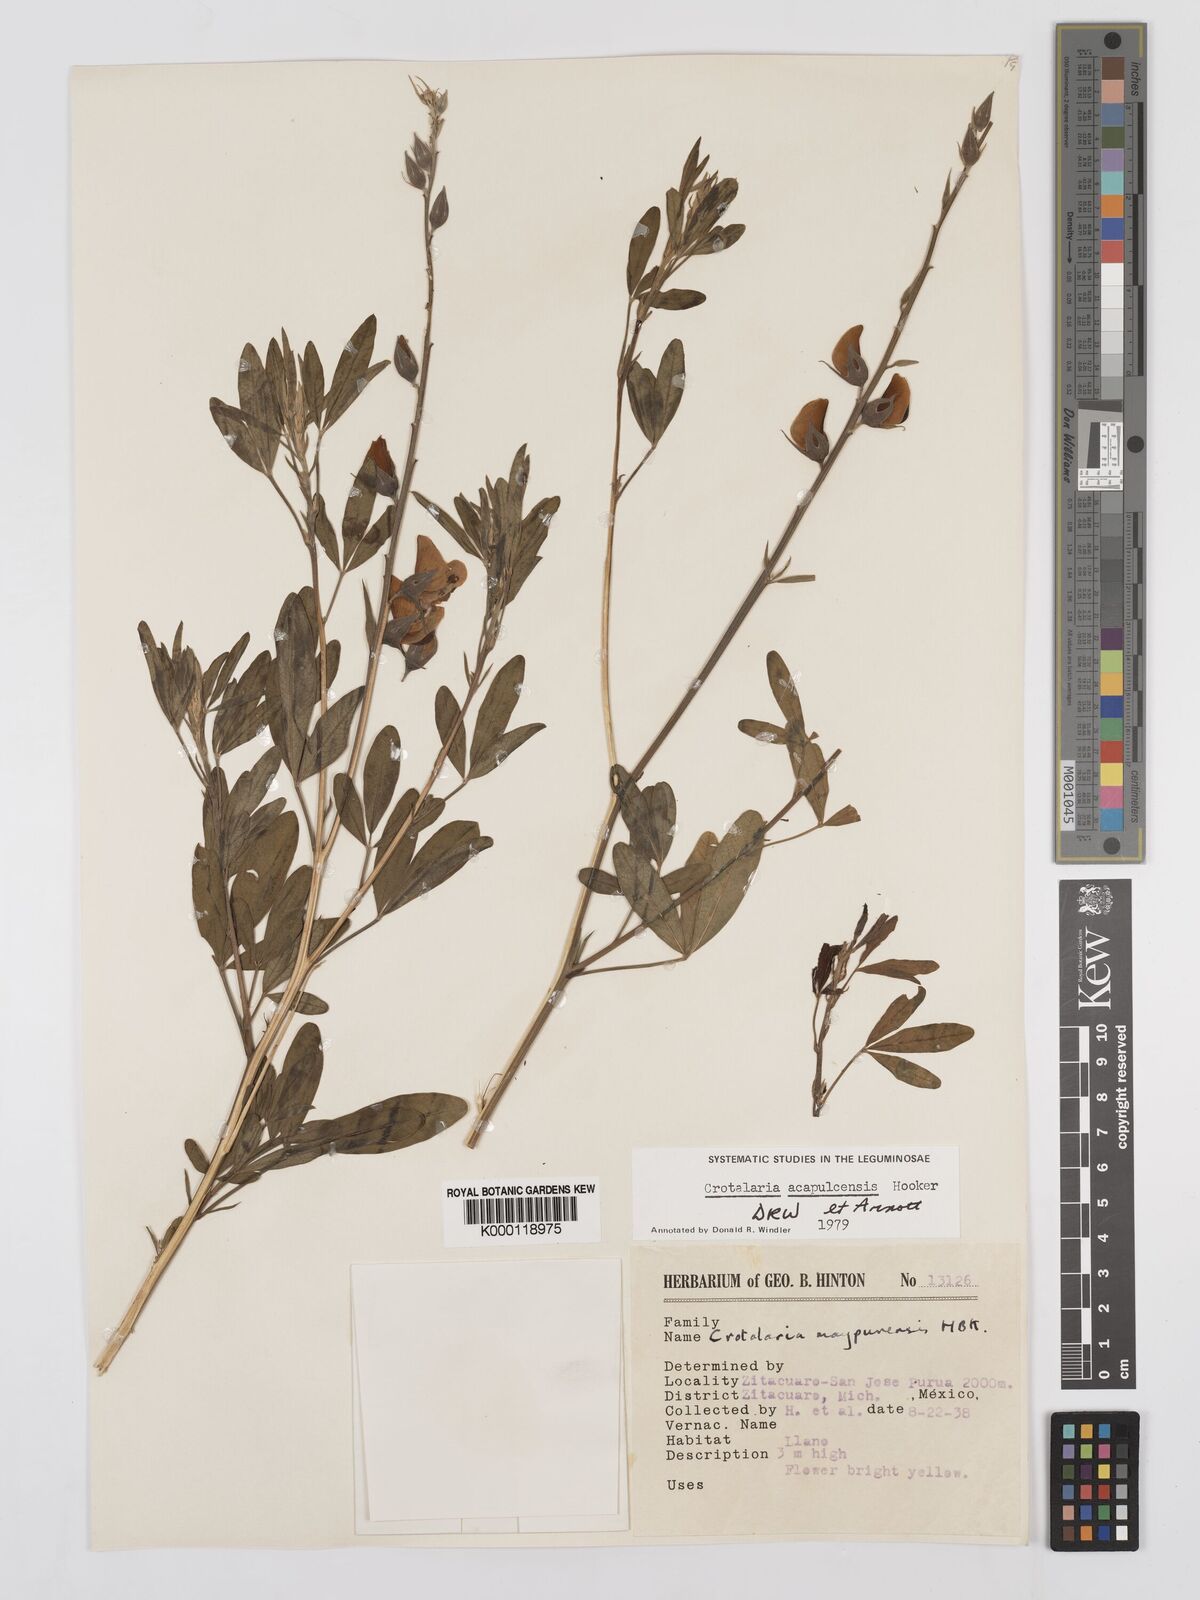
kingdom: Plantae
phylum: Tracheophyta
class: Magnoliopsida
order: Fabales
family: Fabaceae
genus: Crotalaria
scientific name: Crotalaria maypurensis
